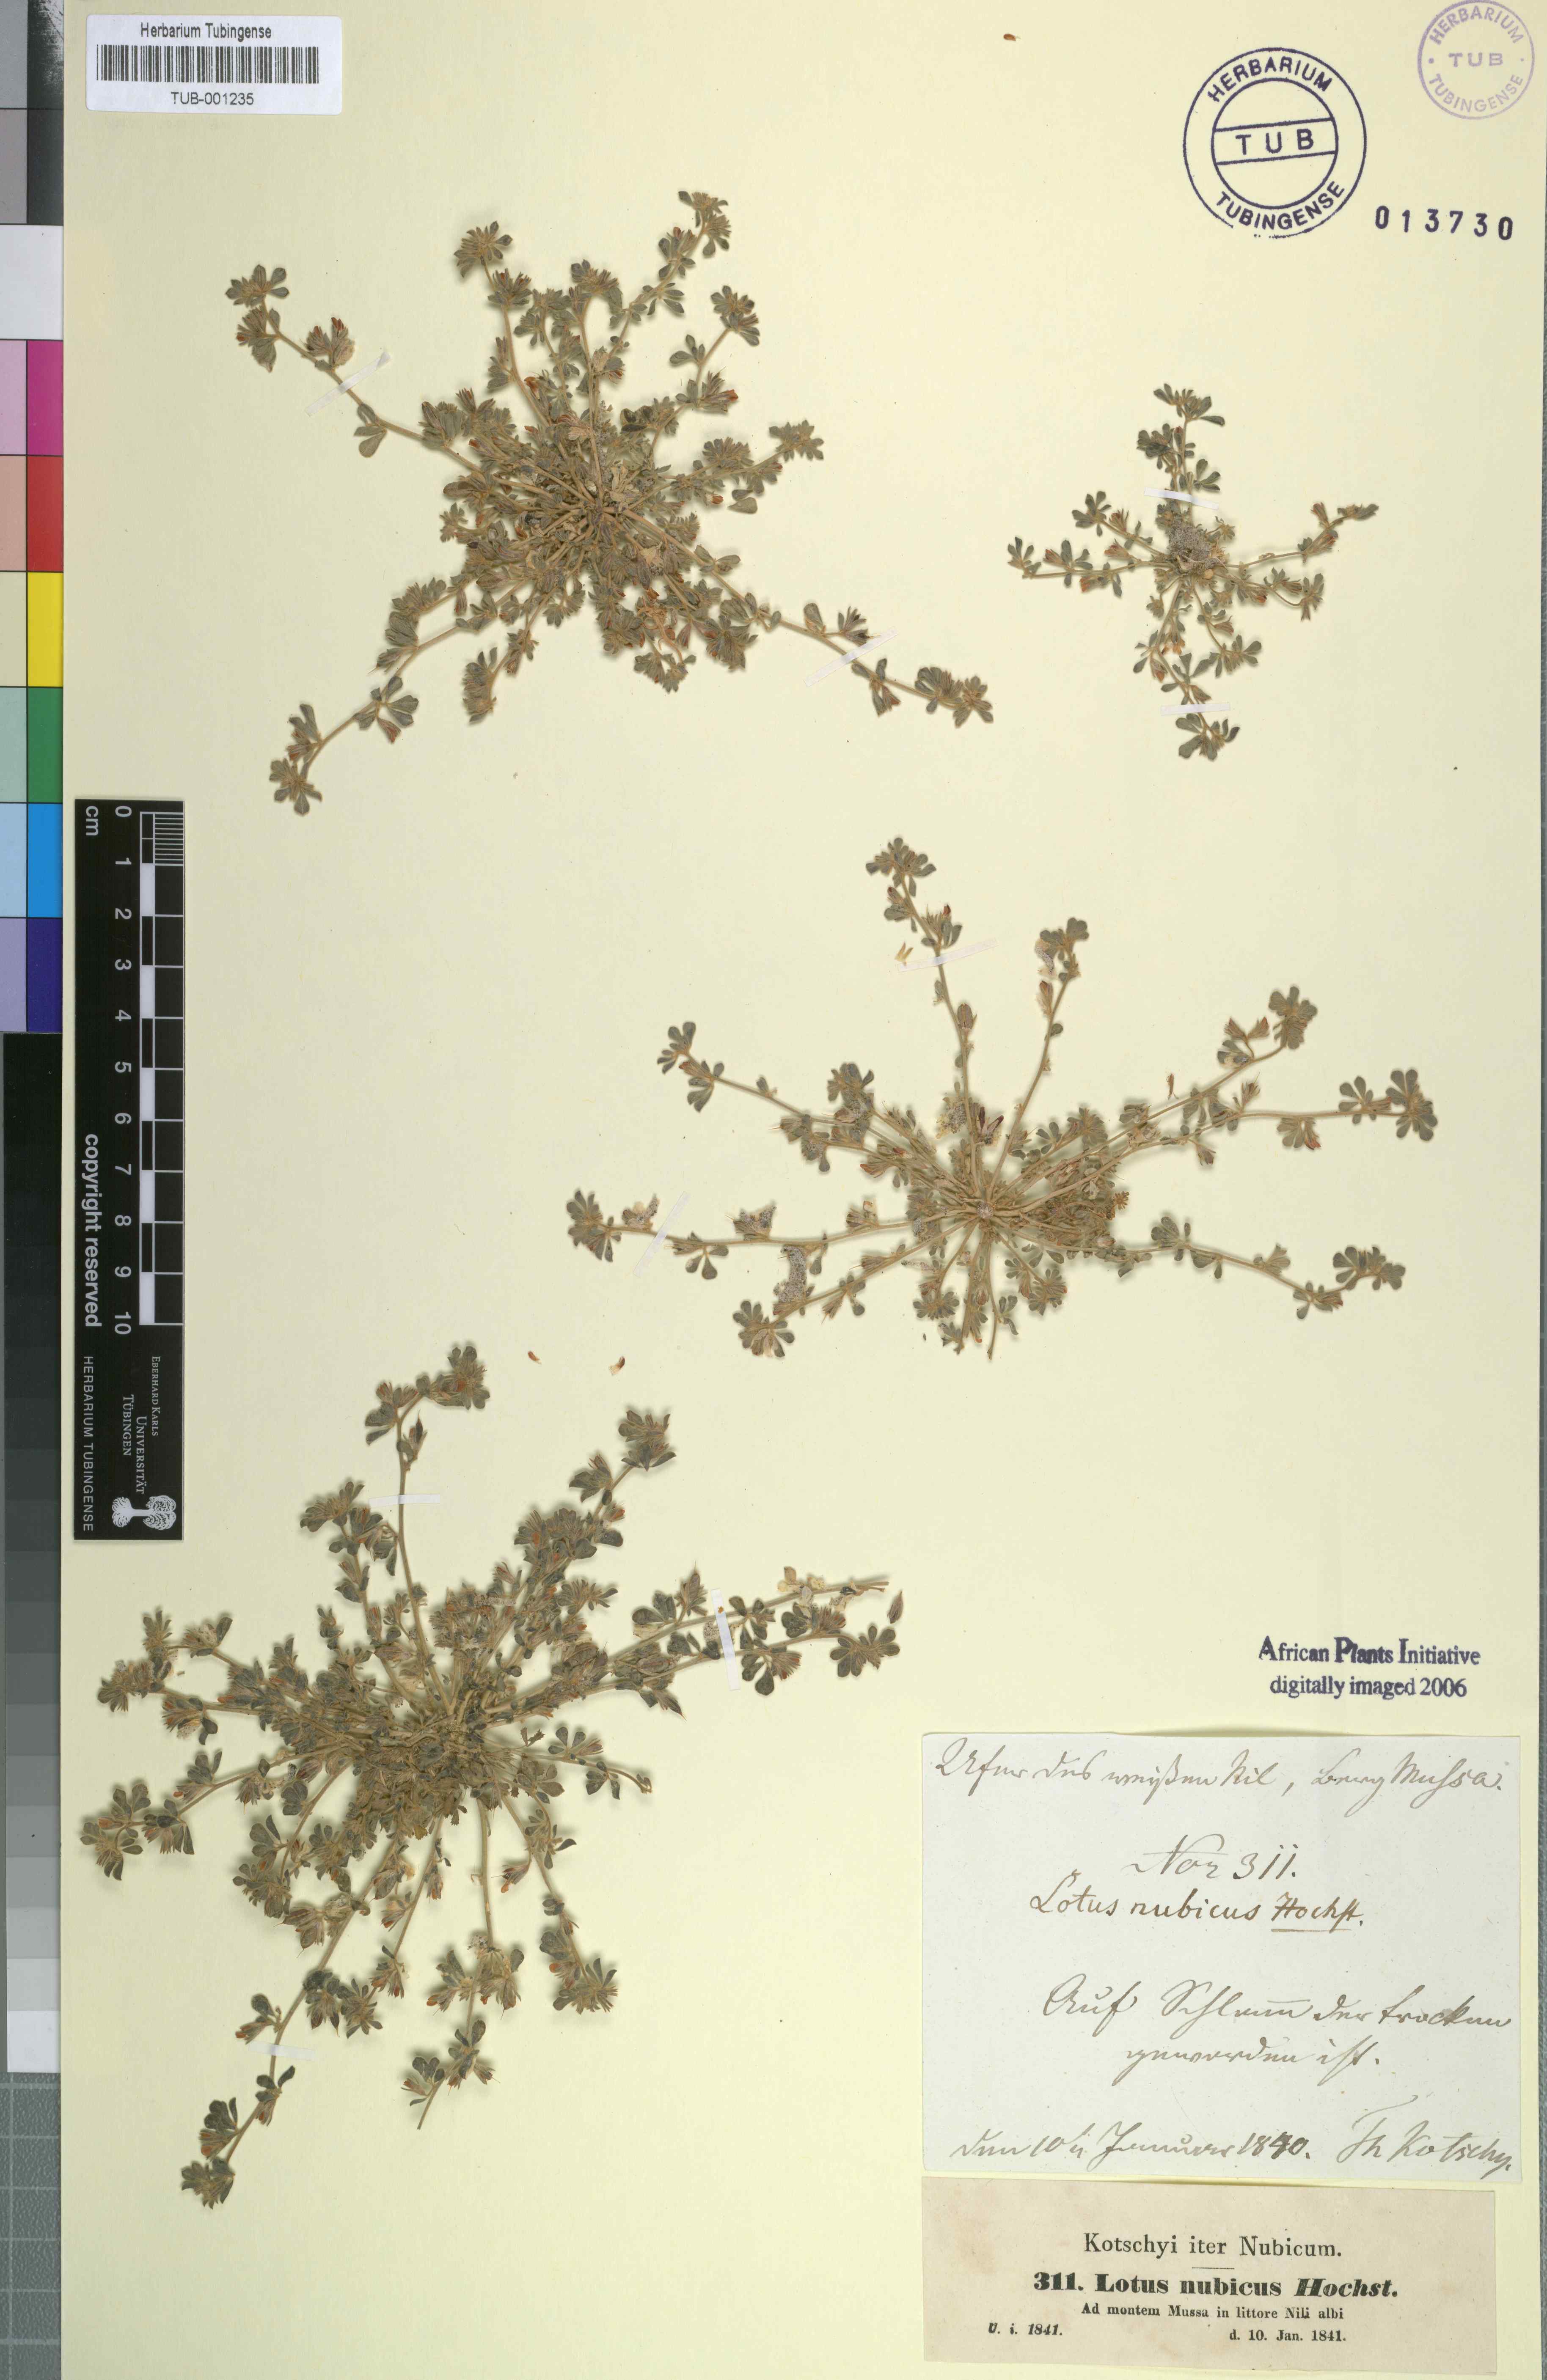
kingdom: Plantae
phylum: Tracheophyta
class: Magnoliopsida
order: Fabales
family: Fabaceae
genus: Lotus
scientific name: Lotus nubicus
